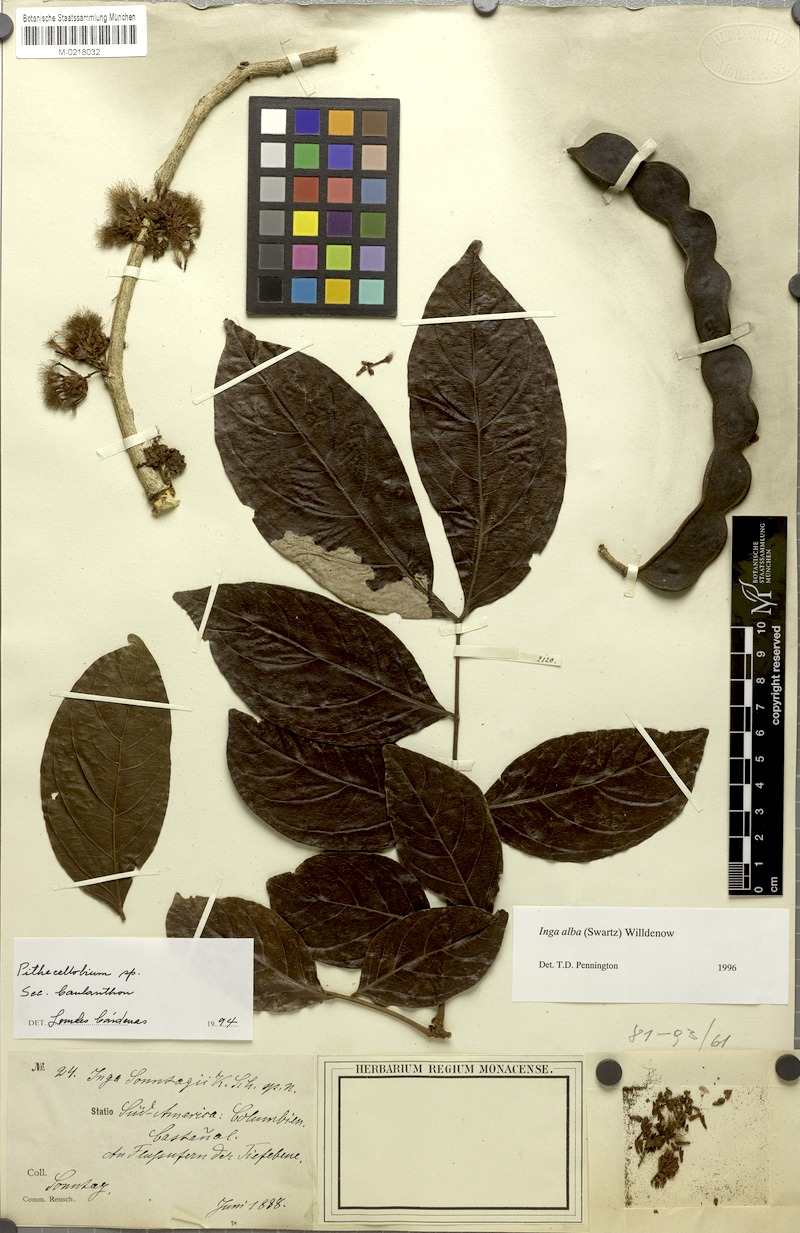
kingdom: Plantae
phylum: Tracheophyta
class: Magnoliopsida
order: Fabales
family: Fabaceae
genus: Inga
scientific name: Inga alba
